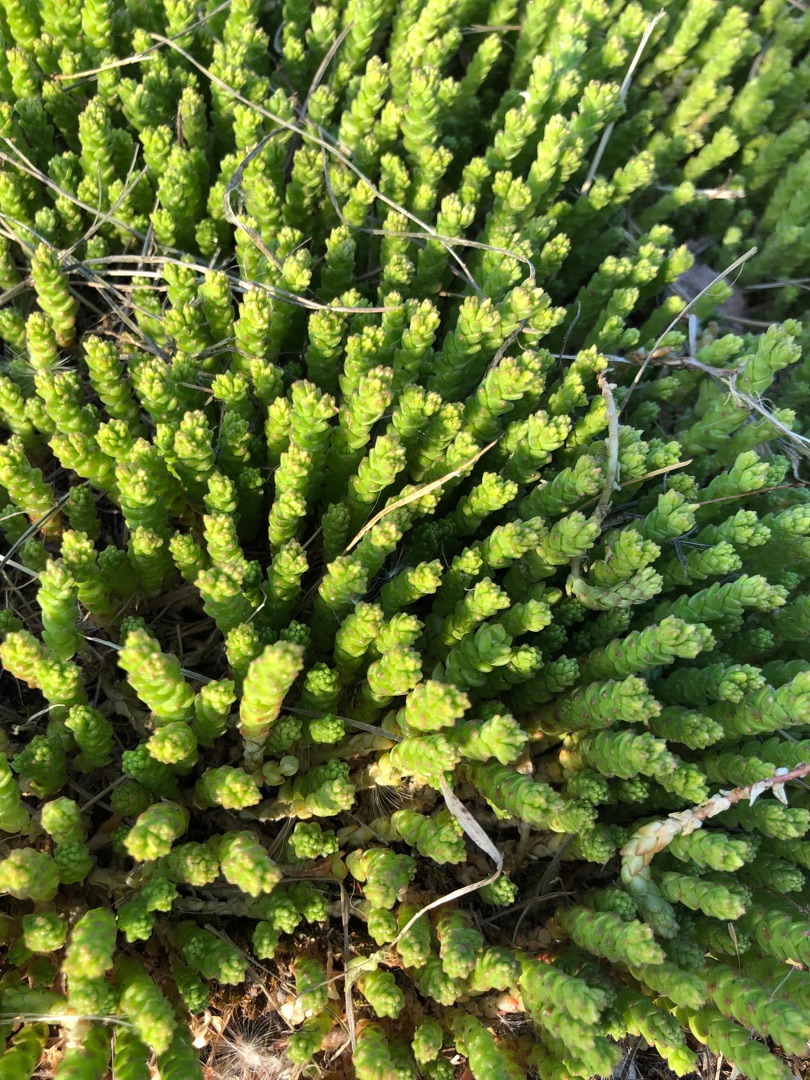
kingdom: Plantae
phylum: Tracheophyta
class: Magnoliopsida
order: Saxifragales
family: Crassulaceae
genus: Sedum
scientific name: Sedum acre
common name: Bidende stenurt
